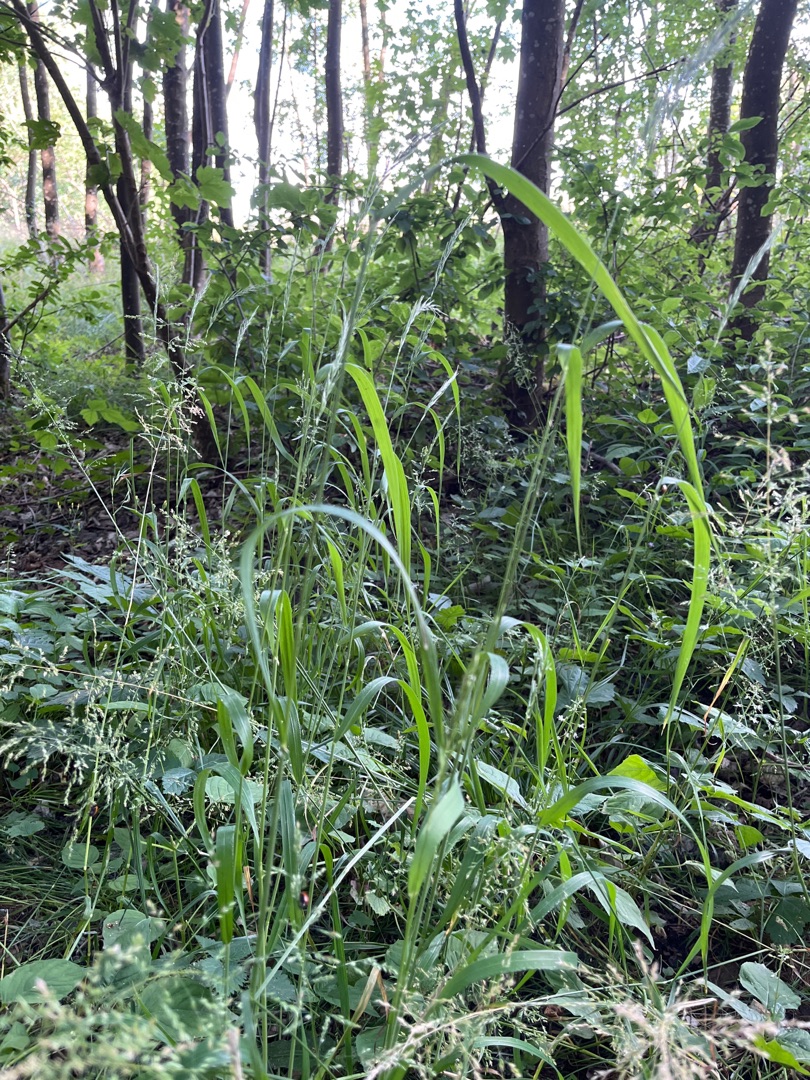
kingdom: Plantae
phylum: Tracheophyta
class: Liliopsida
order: Poales
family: Poaceae
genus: Elymus
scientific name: Elymus caninus
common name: Hundekvik
